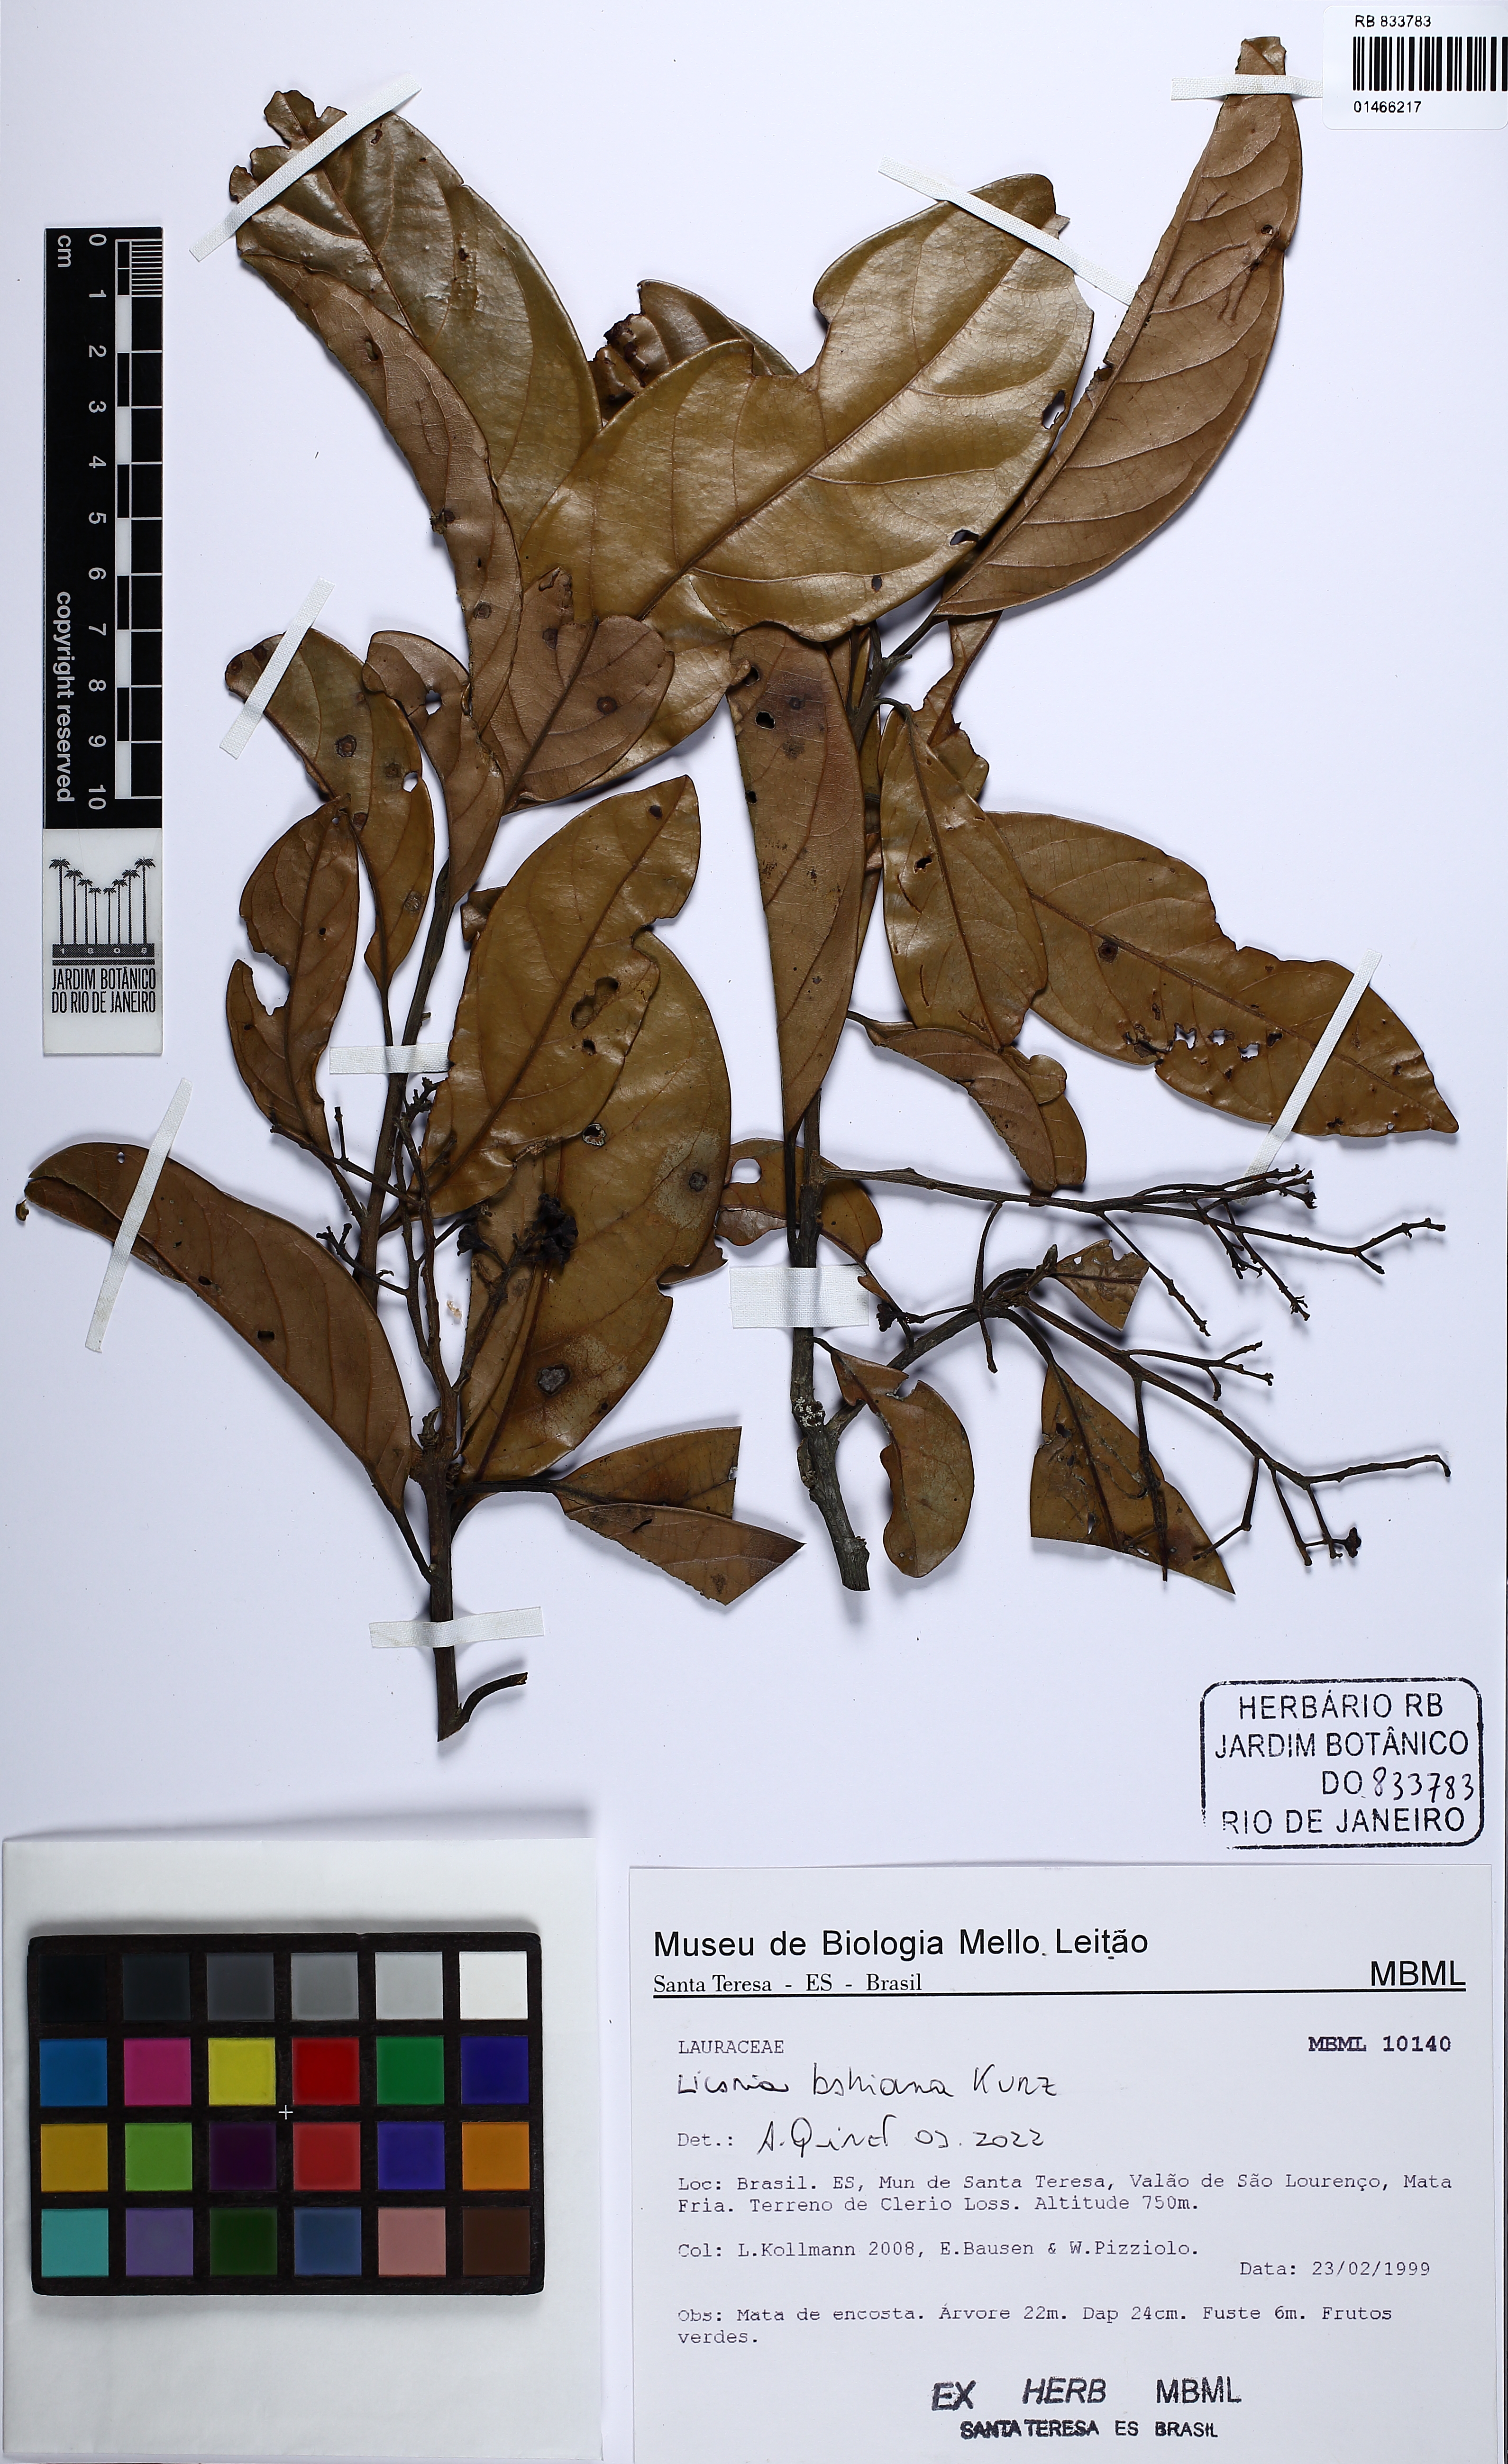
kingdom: Plantae
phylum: Tracheophyta
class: Magnoliopsida
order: Laurales
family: Lauraceae
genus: Licaria
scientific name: Licaria bahiana
